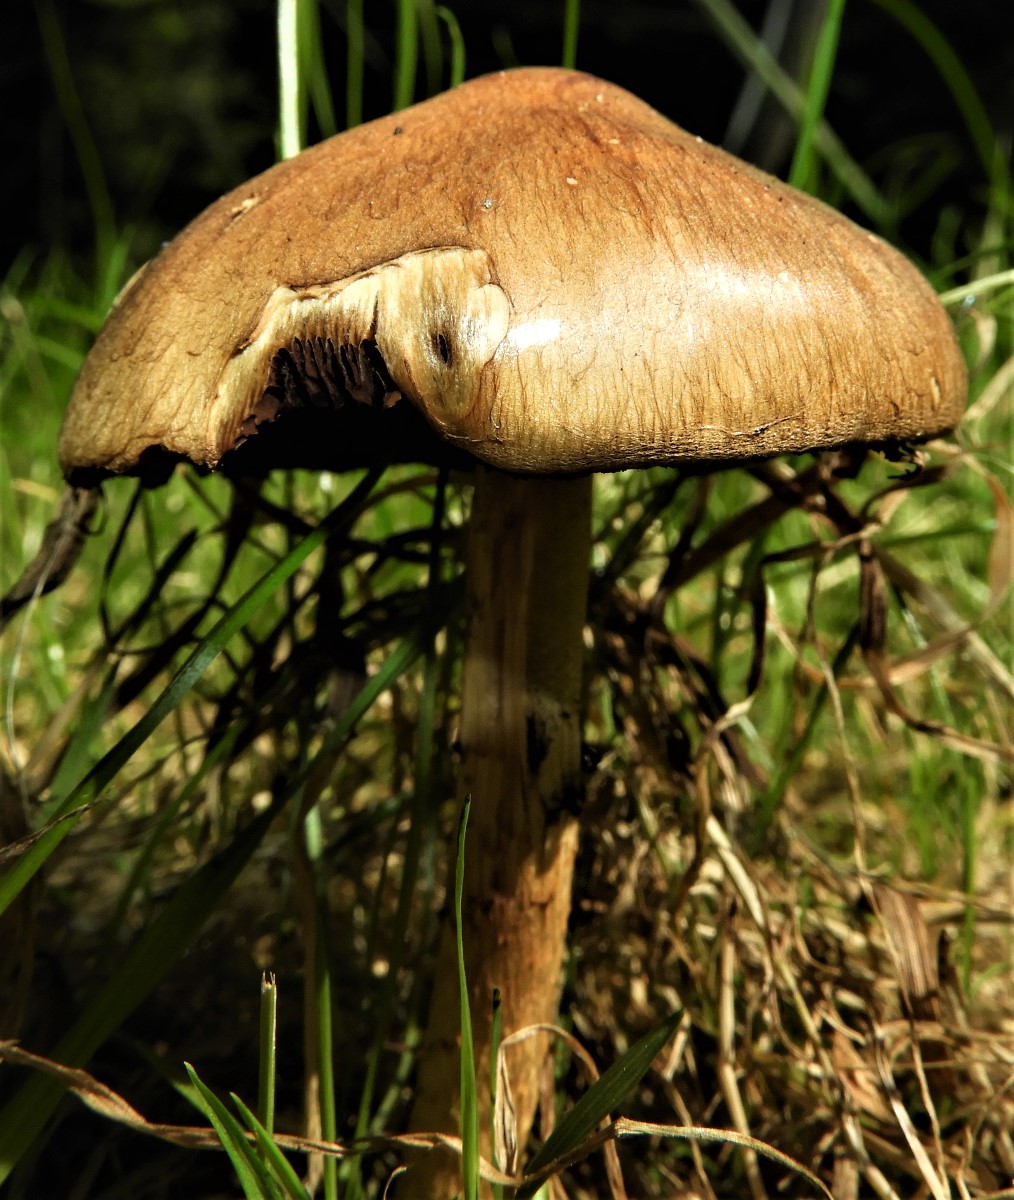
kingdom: Fungi
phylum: Basidiomycota
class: Agaricomycetes
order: Agaricales
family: Psathyrellaceae
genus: Lacrymaria
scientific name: Lacrymaria lacrymabunda
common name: grædende mørkhat
